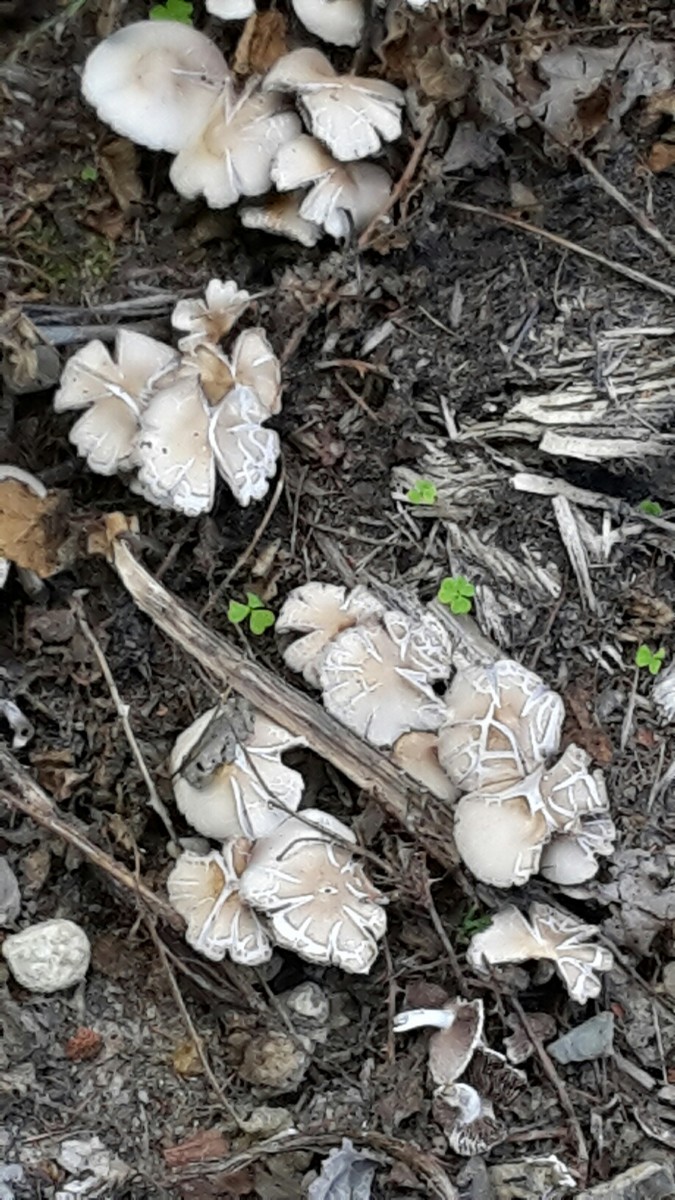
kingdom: Fungi
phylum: Basidiomycota
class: Agaricomycetes
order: Agaricales
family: Psathyrellaceae
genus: Candolleomyces
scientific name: Candolleomyces candolleanus
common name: Candolles mørkhat
